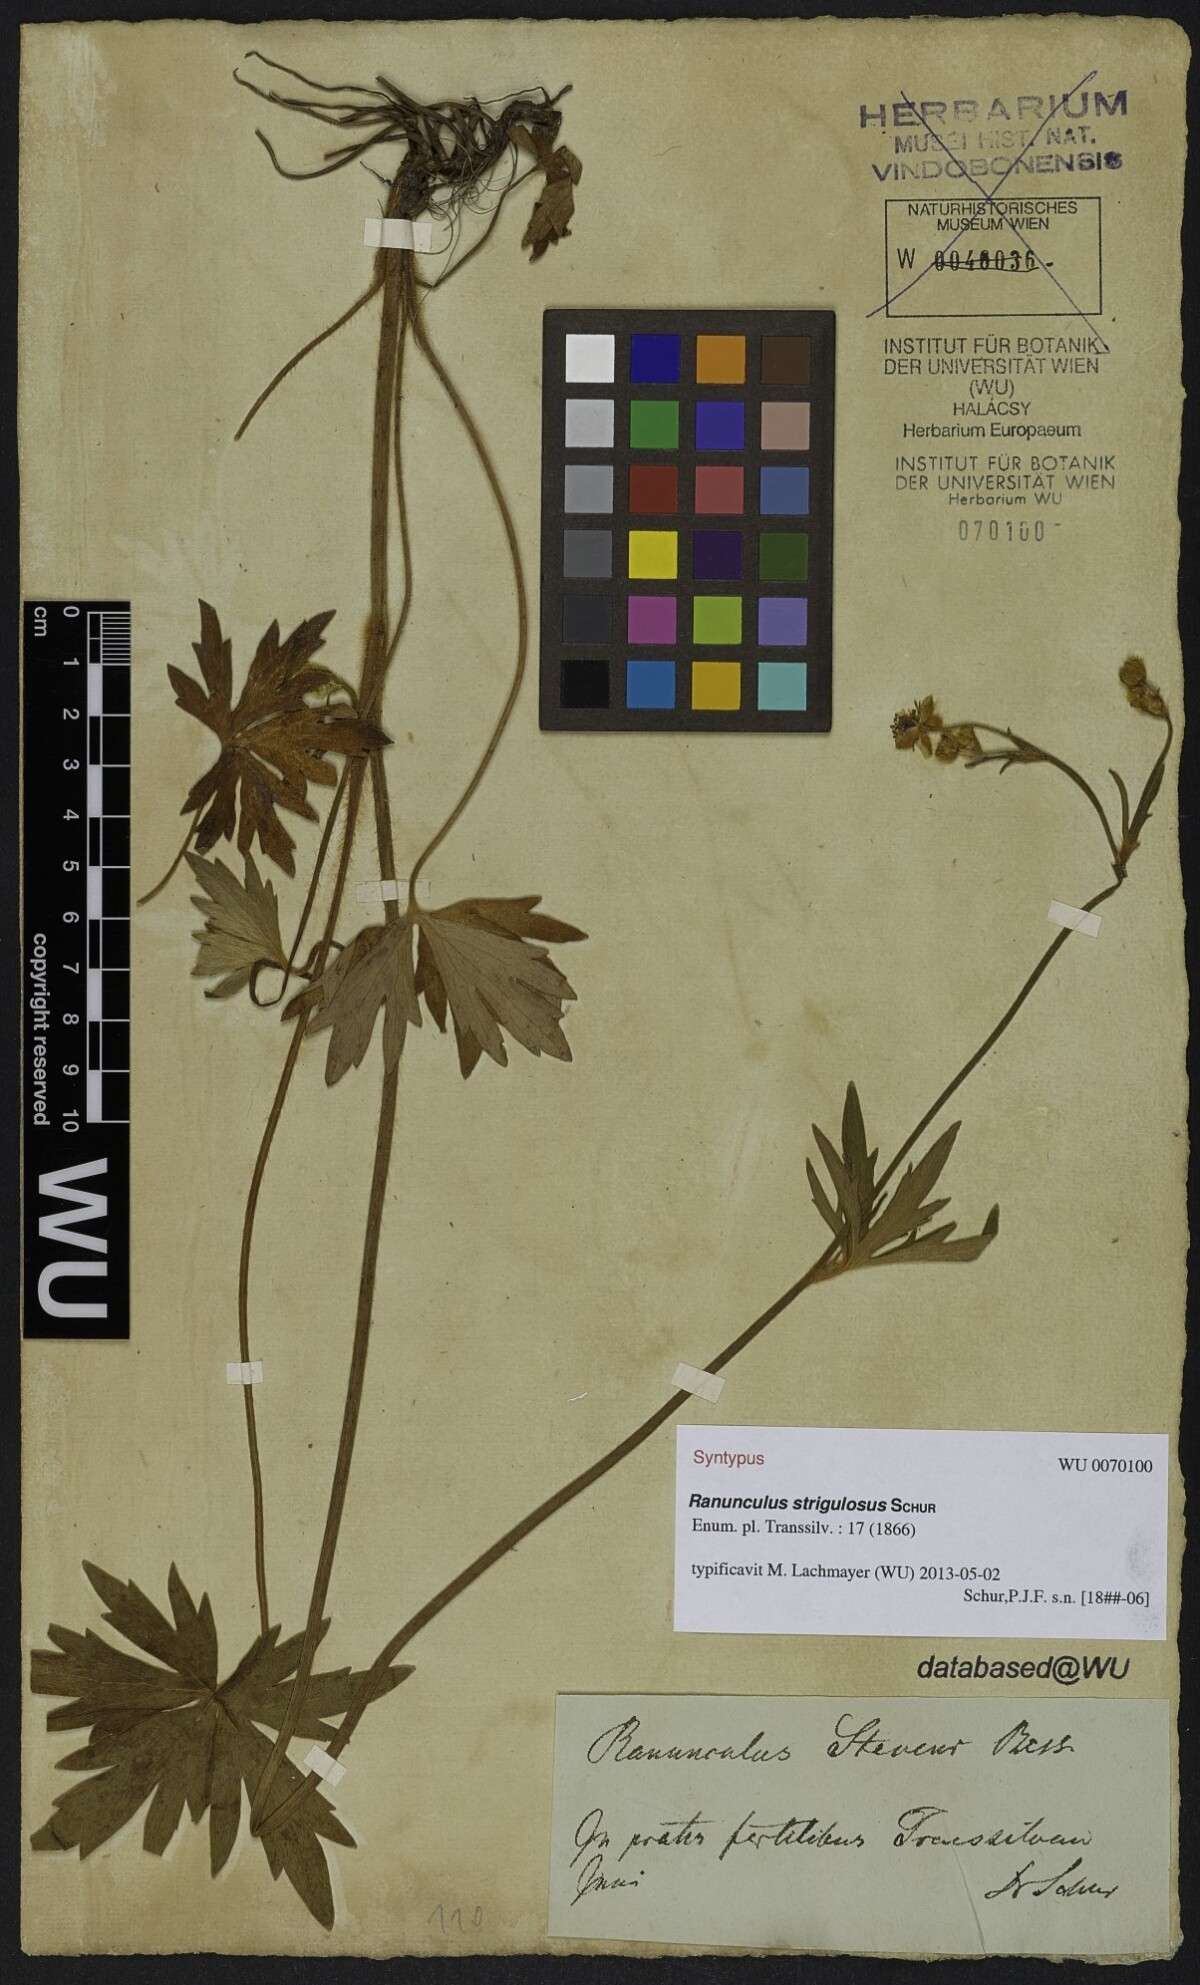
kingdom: Plantae
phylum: Tracheophyta
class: Magnoliopsida
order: Ranunculales
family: Ranunculaceae
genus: Ranunculus
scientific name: Ranunculus propinquus
